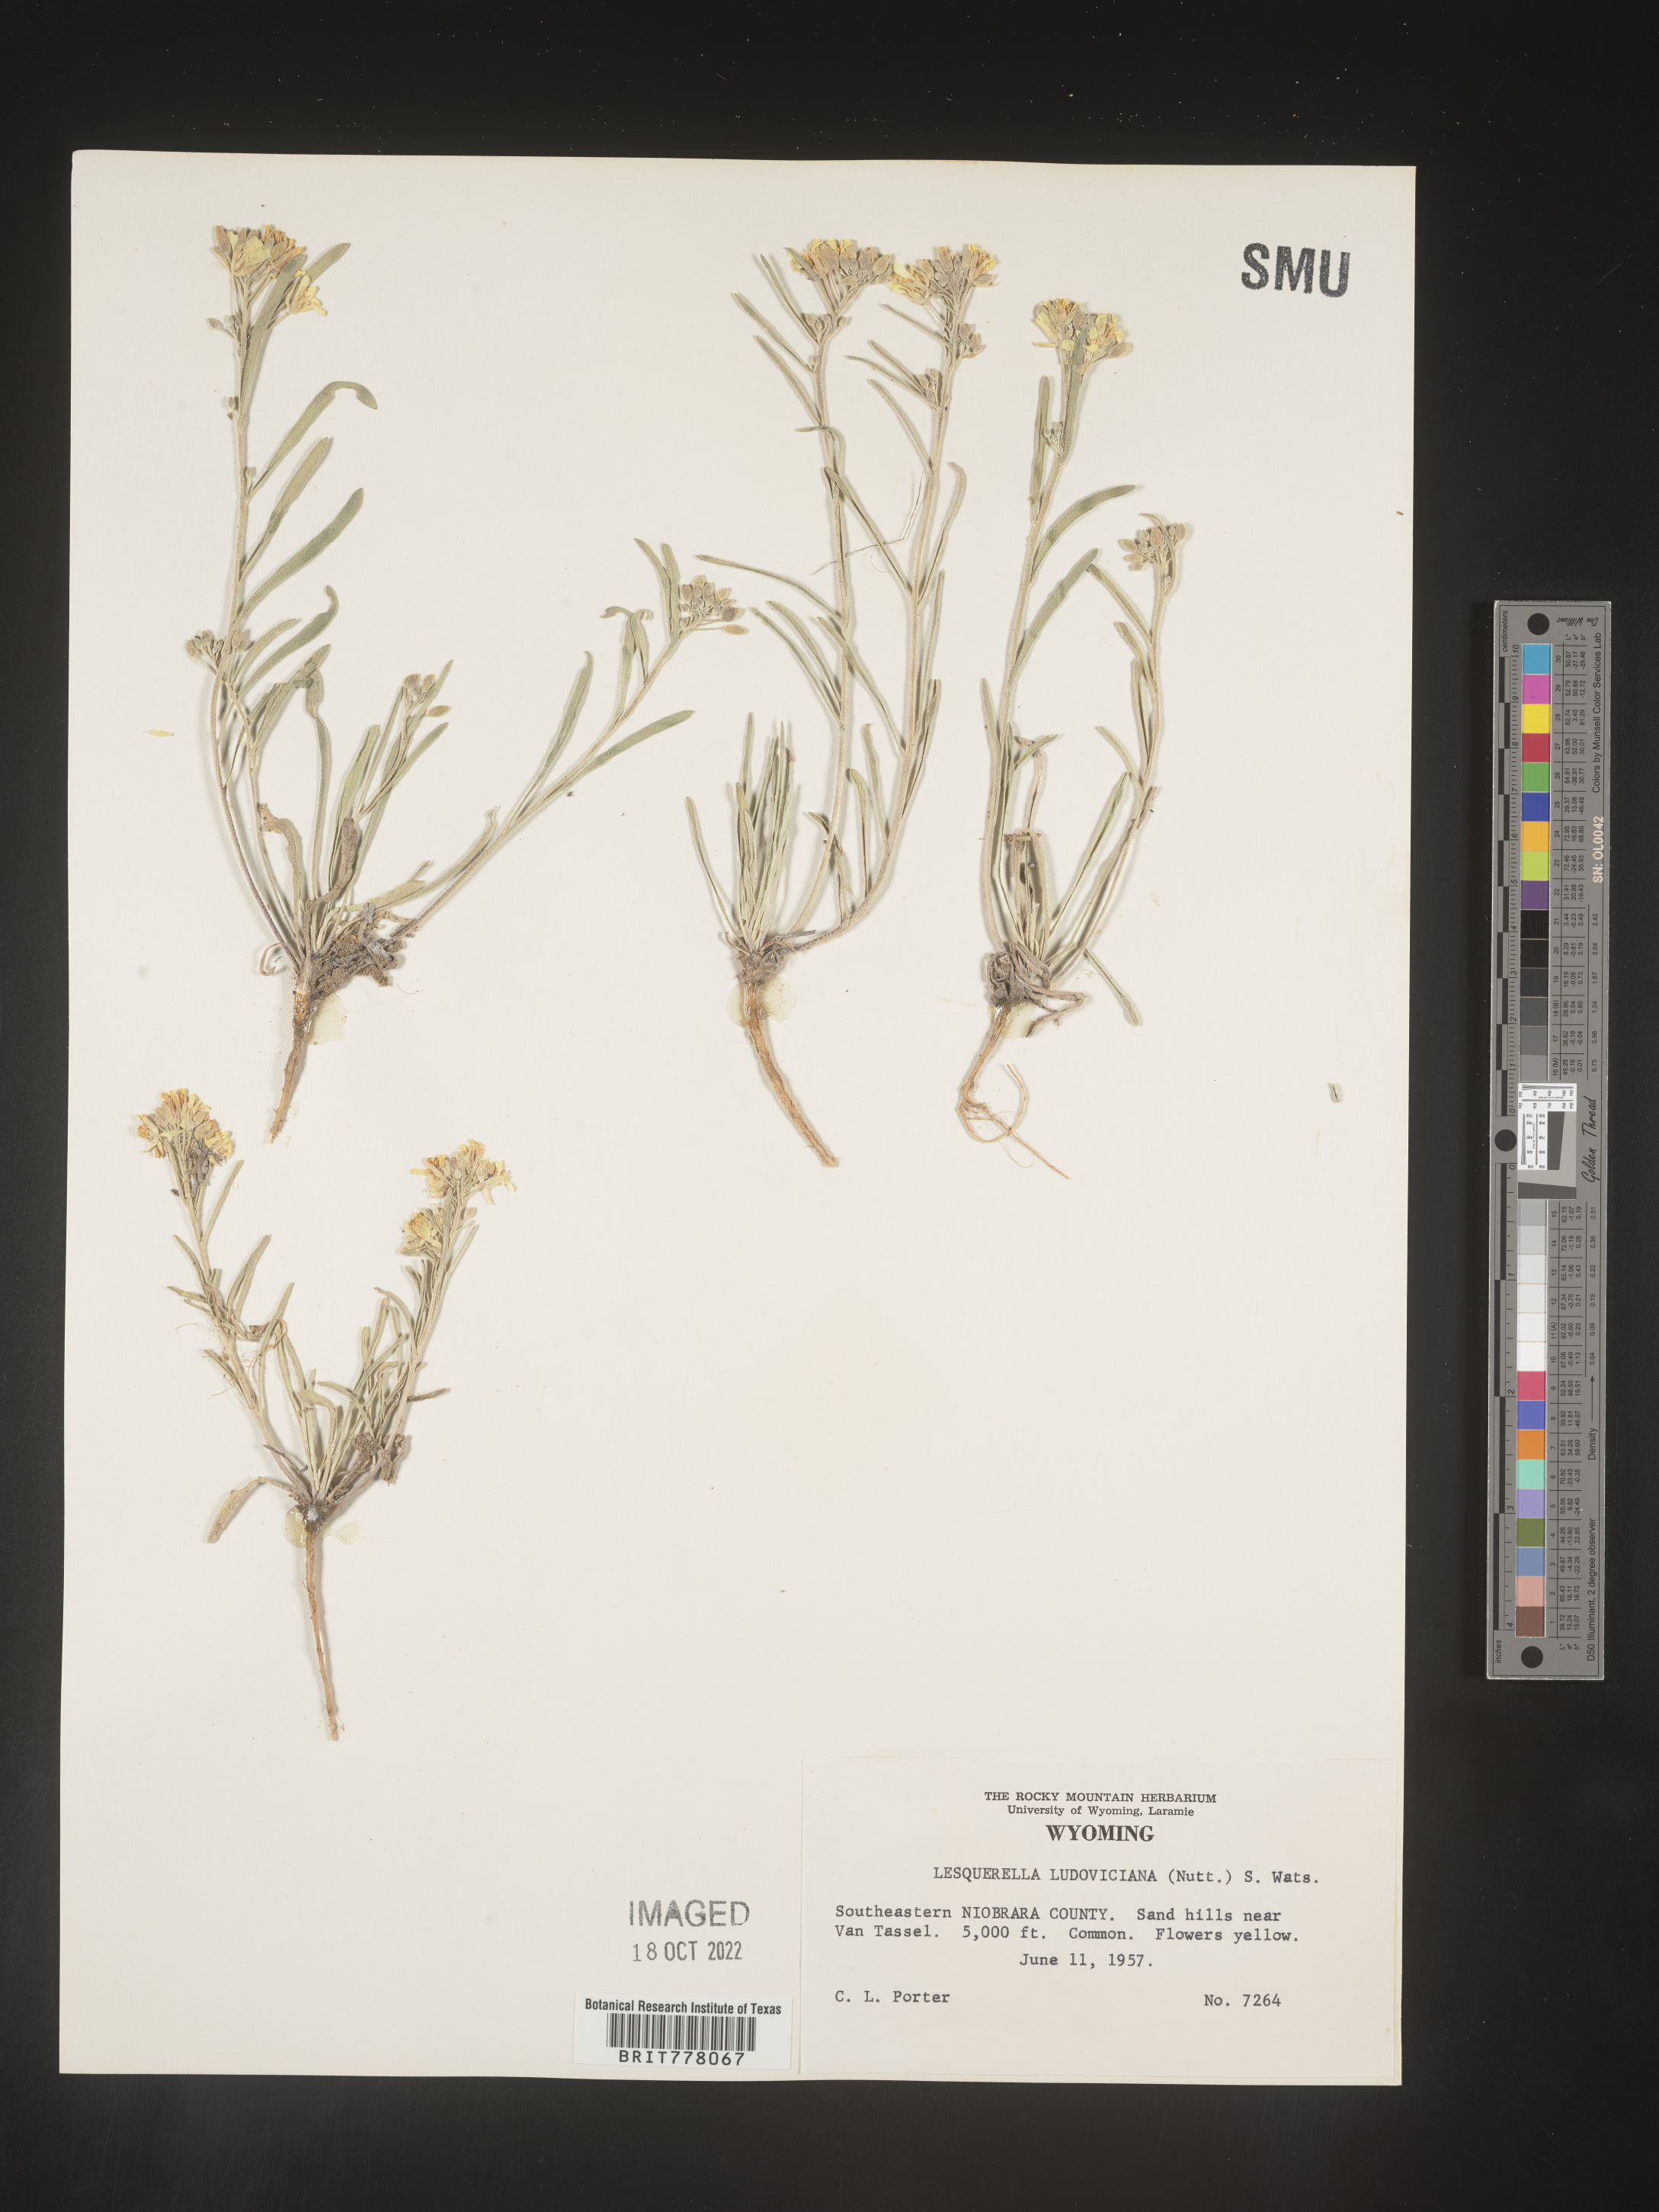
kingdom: Chromista
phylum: Cercozoa
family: Psammonobiotidae
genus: Lesquerella
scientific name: Lesquerella
